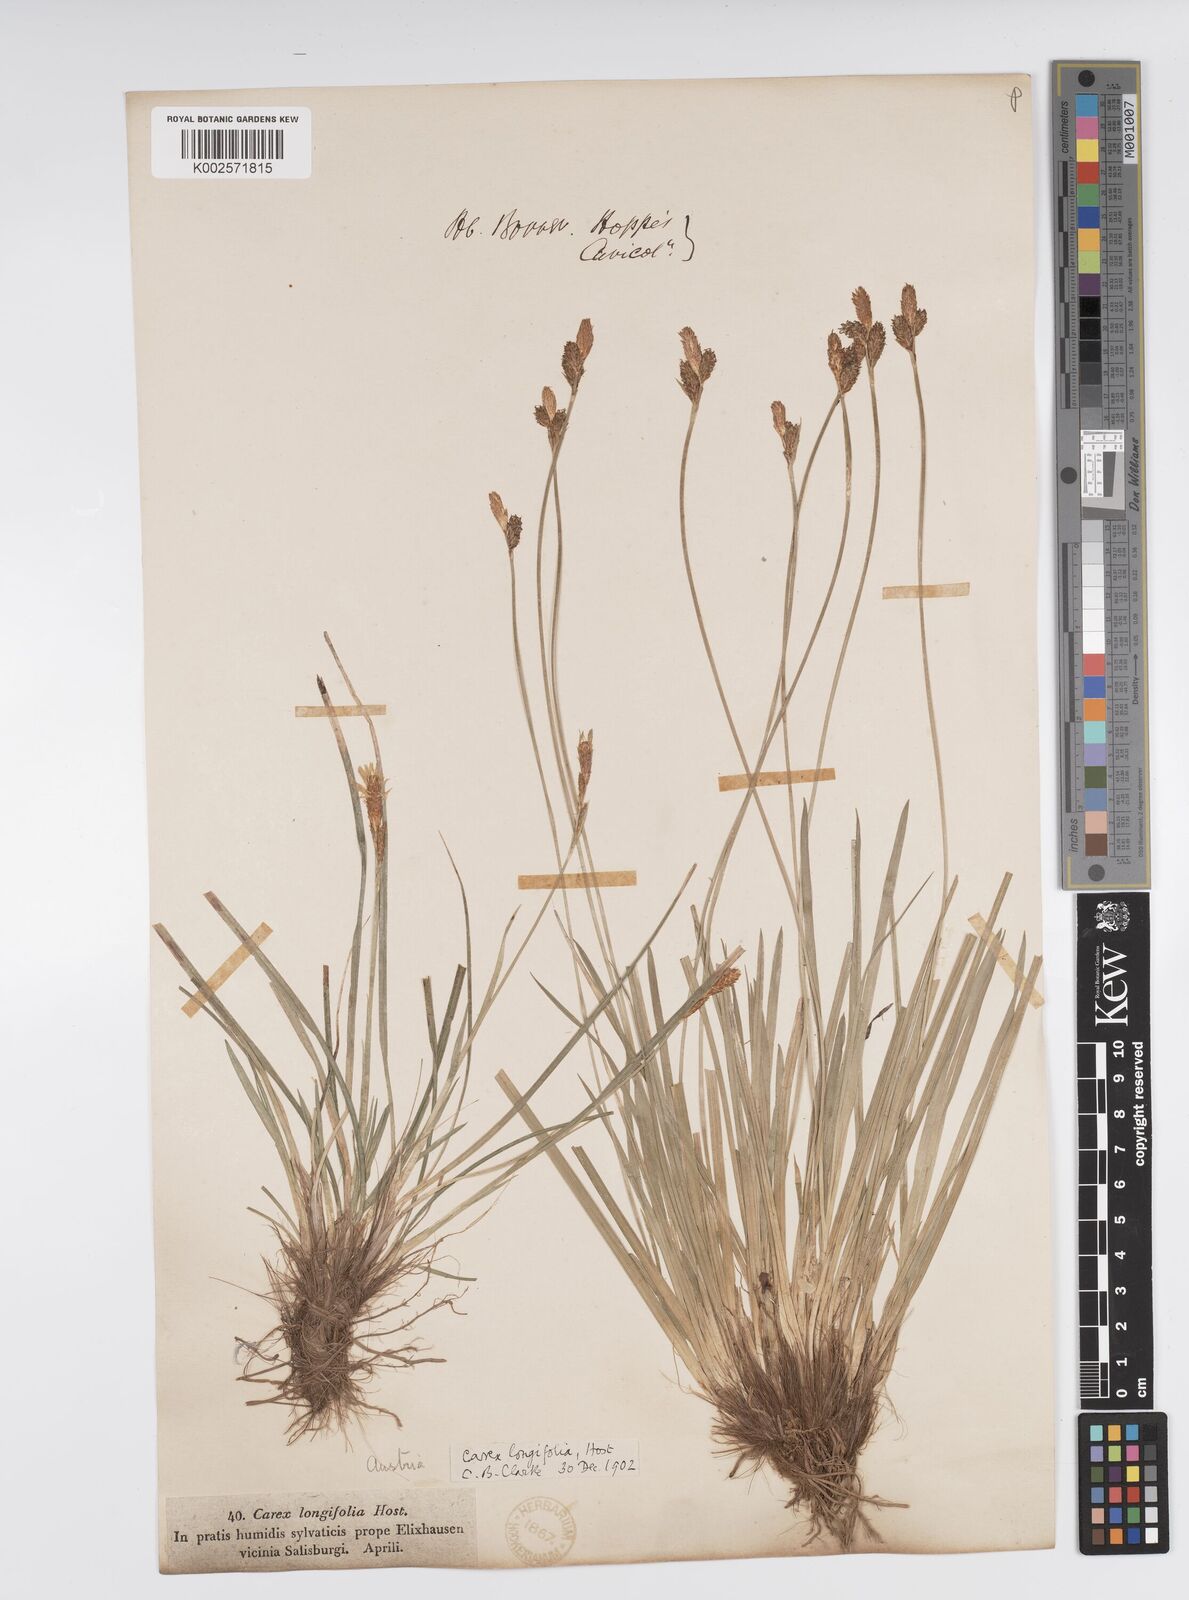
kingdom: Plantae
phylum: Tracheophyta
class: Liliopsida
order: Poales
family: Cyperaceae
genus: Carex
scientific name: Carex umbrosa
